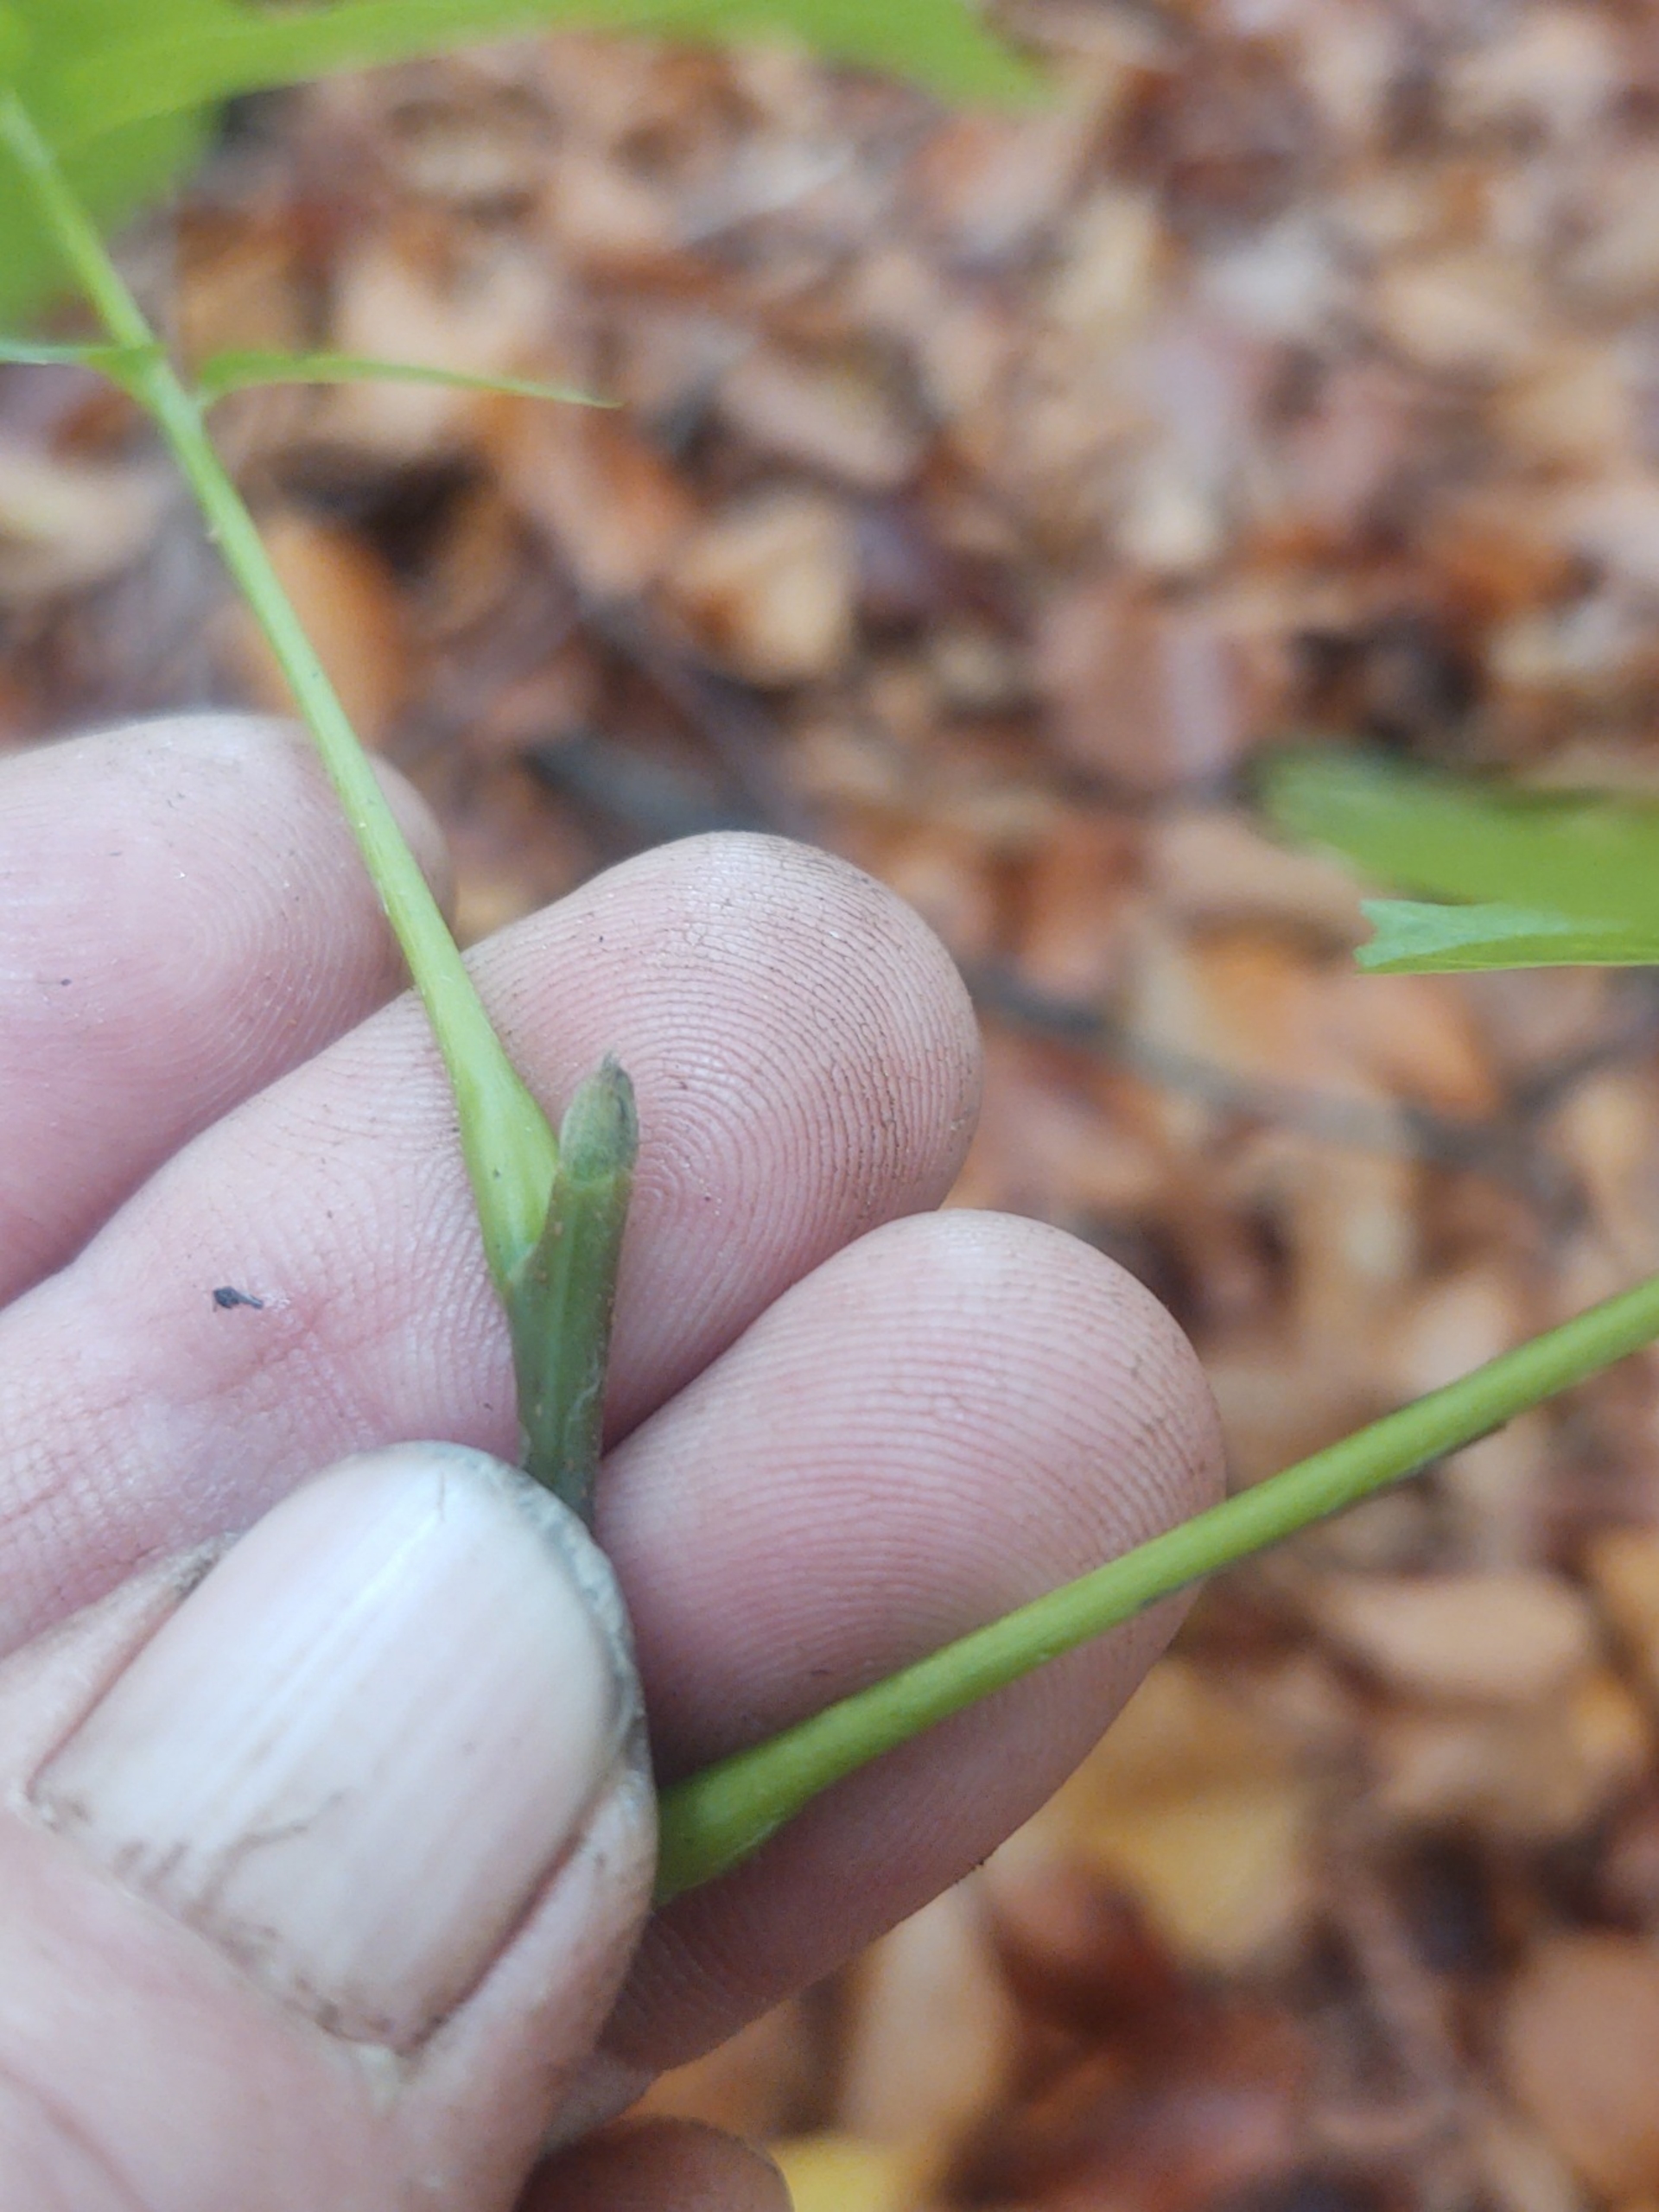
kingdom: Plantae
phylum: Tracheophyta
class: Magnoliopsida
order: Fagales
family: Juglandaceae
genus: Juglans
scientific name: Juglans regia
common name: Almindelig valnød
